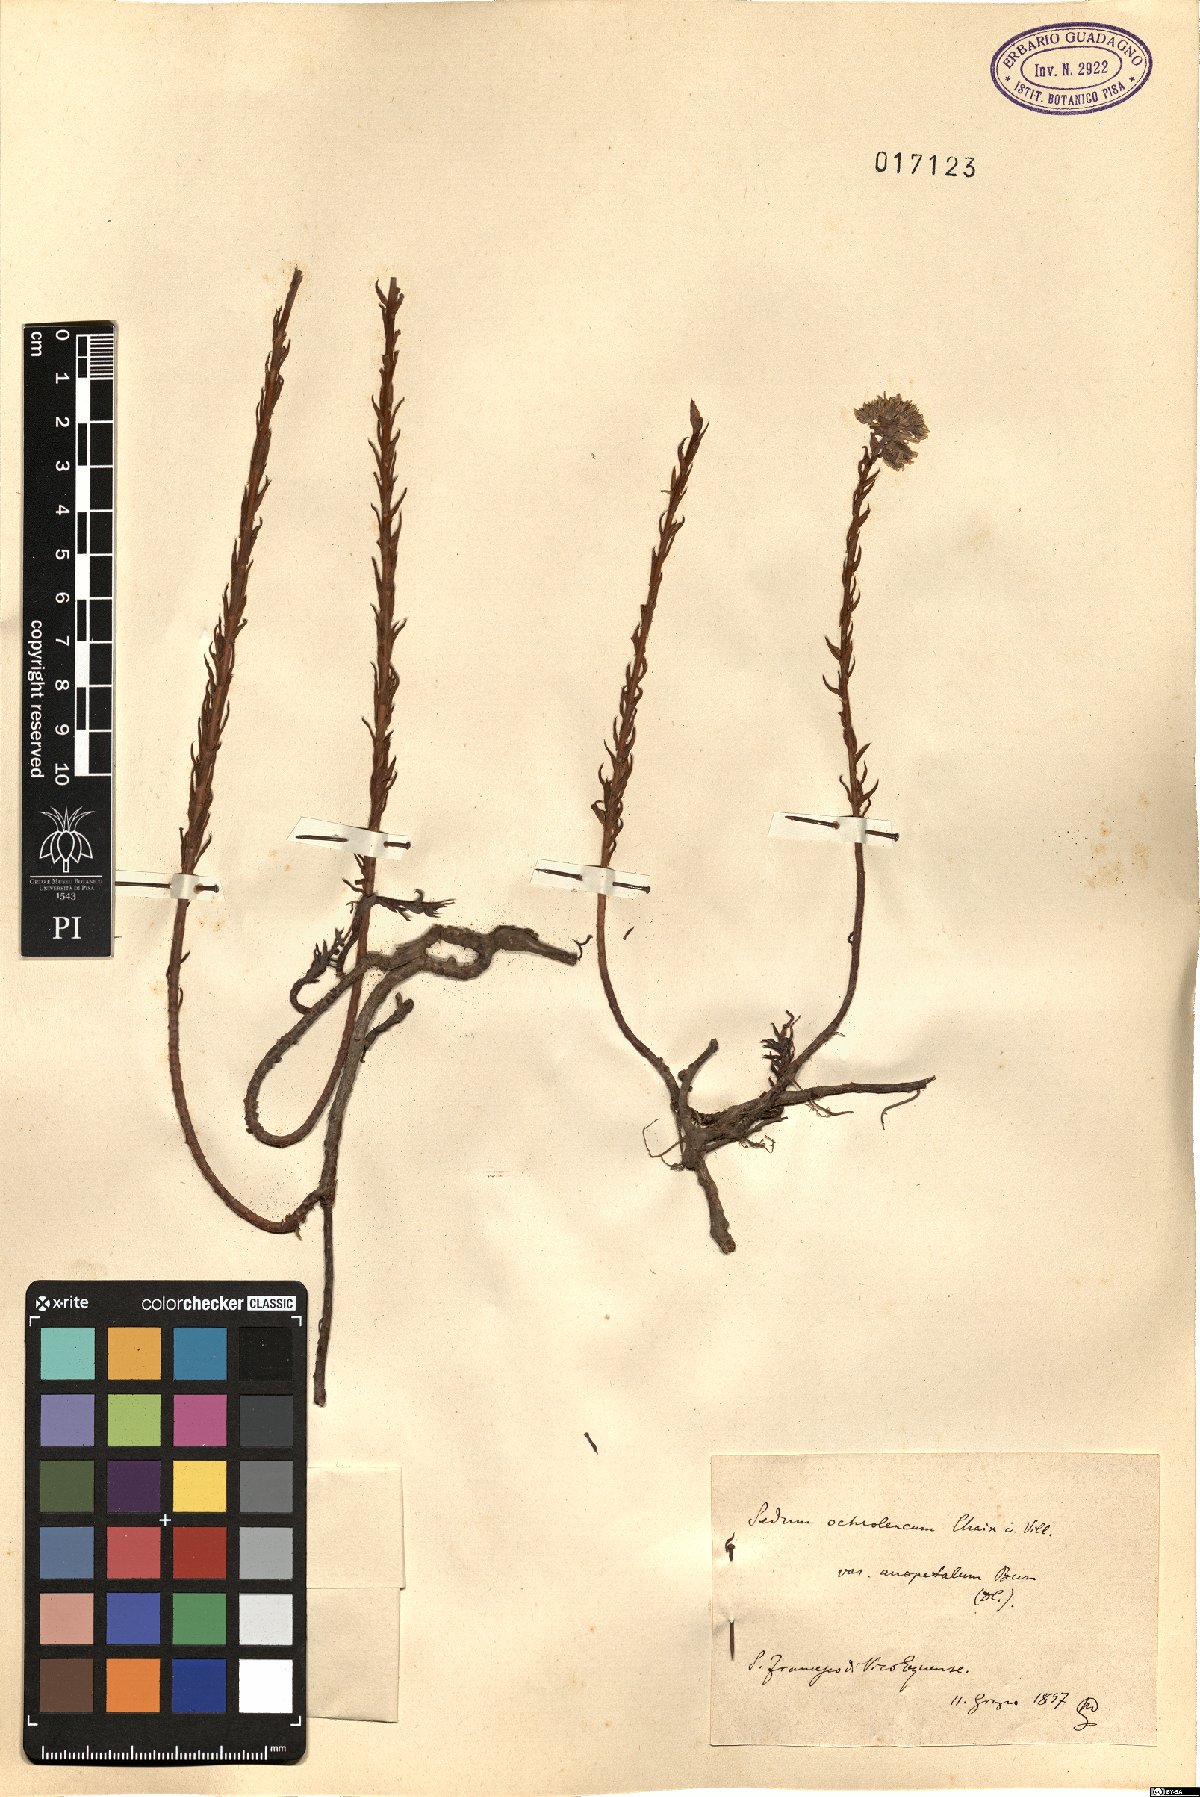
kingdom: Plantae
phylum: Tracheophyta
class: Magnoliopsida
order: Saxifragales
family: Crassulaceae
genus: Petrosedum
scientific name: Petrosedum ochroleucum
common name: European stonecrop
